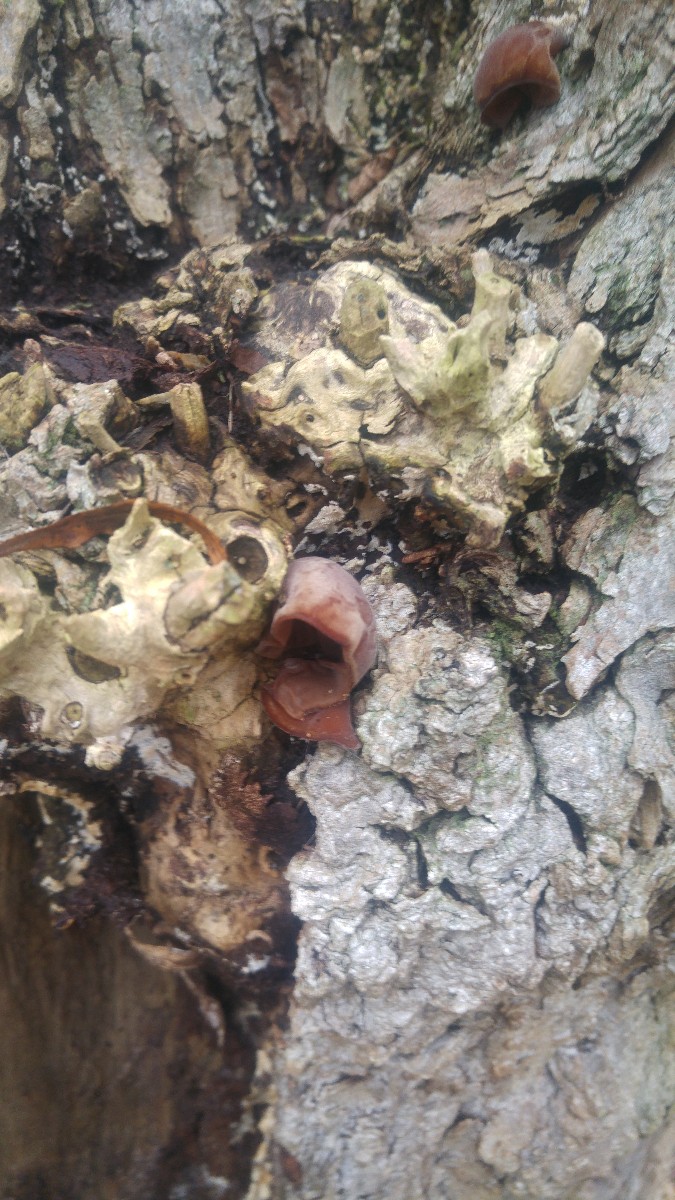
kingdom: Fungi
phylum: Basidiomycota
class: Agaricomycetes
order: Auriculariales
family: Auriculariaceae
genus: Auricularia
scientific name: Auricularia auricula-judae
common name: almindelig judasøre
